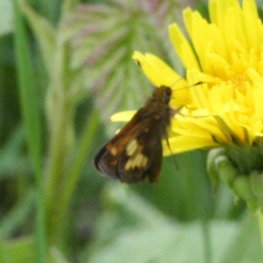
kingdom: Animalia
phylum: Arthropoda
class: Insecta
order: Lepidoptera
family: Hesperiidae
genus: Lon
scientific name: Lon hobomok
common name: Hobomok Skipper
